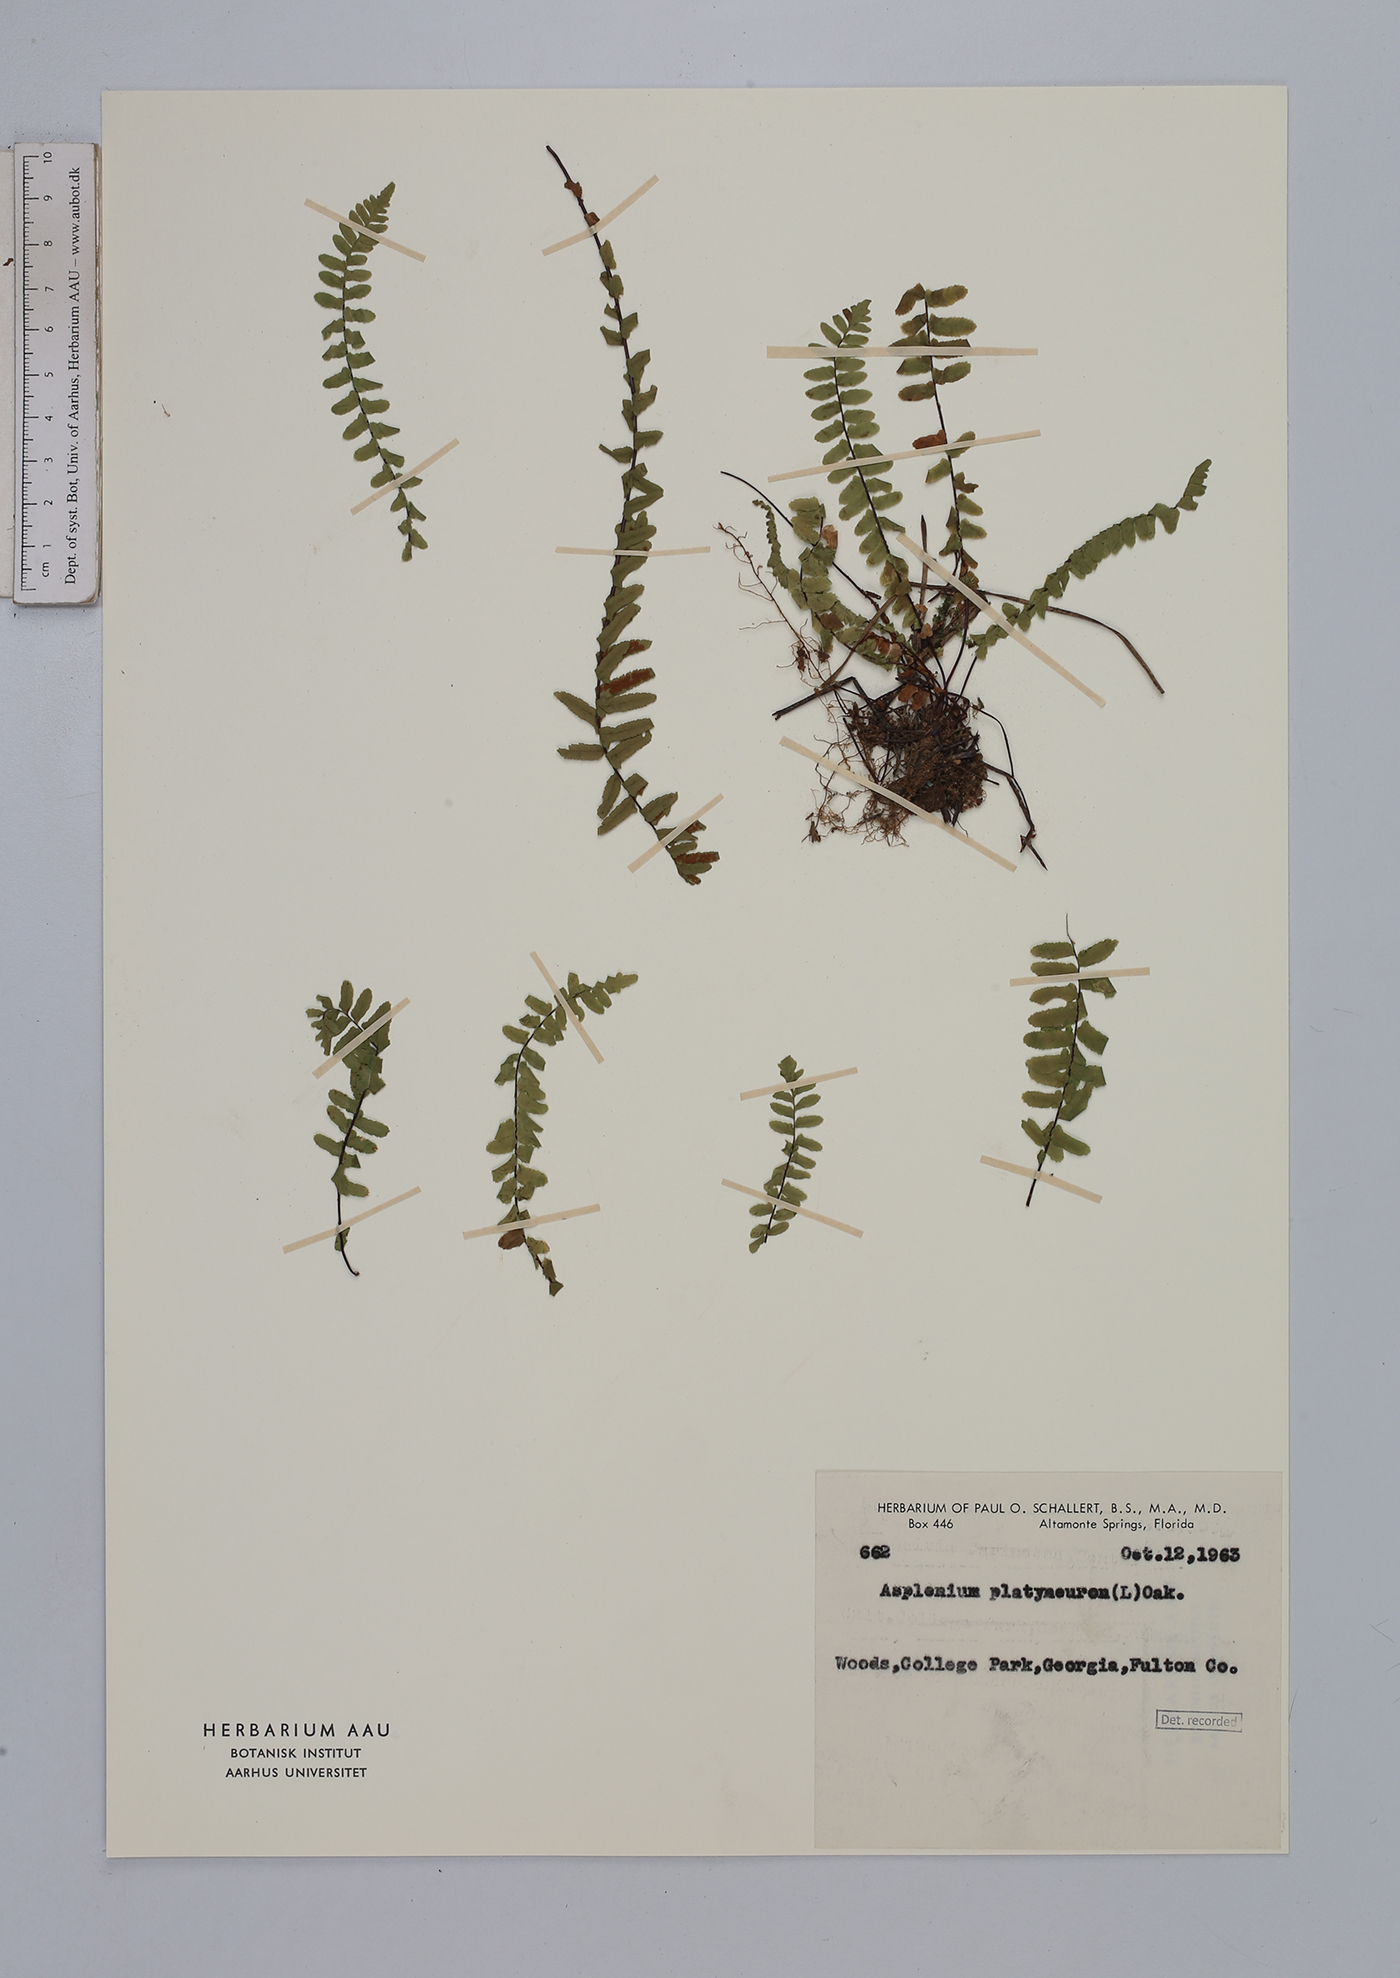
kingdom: Plantae
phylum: Tracheophyta
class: Polypodiopsida
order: Polypodiales
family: Aspleniaceae
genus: Asplenium
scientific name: Asplenium platyneuron
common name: Ebony spleenwort
